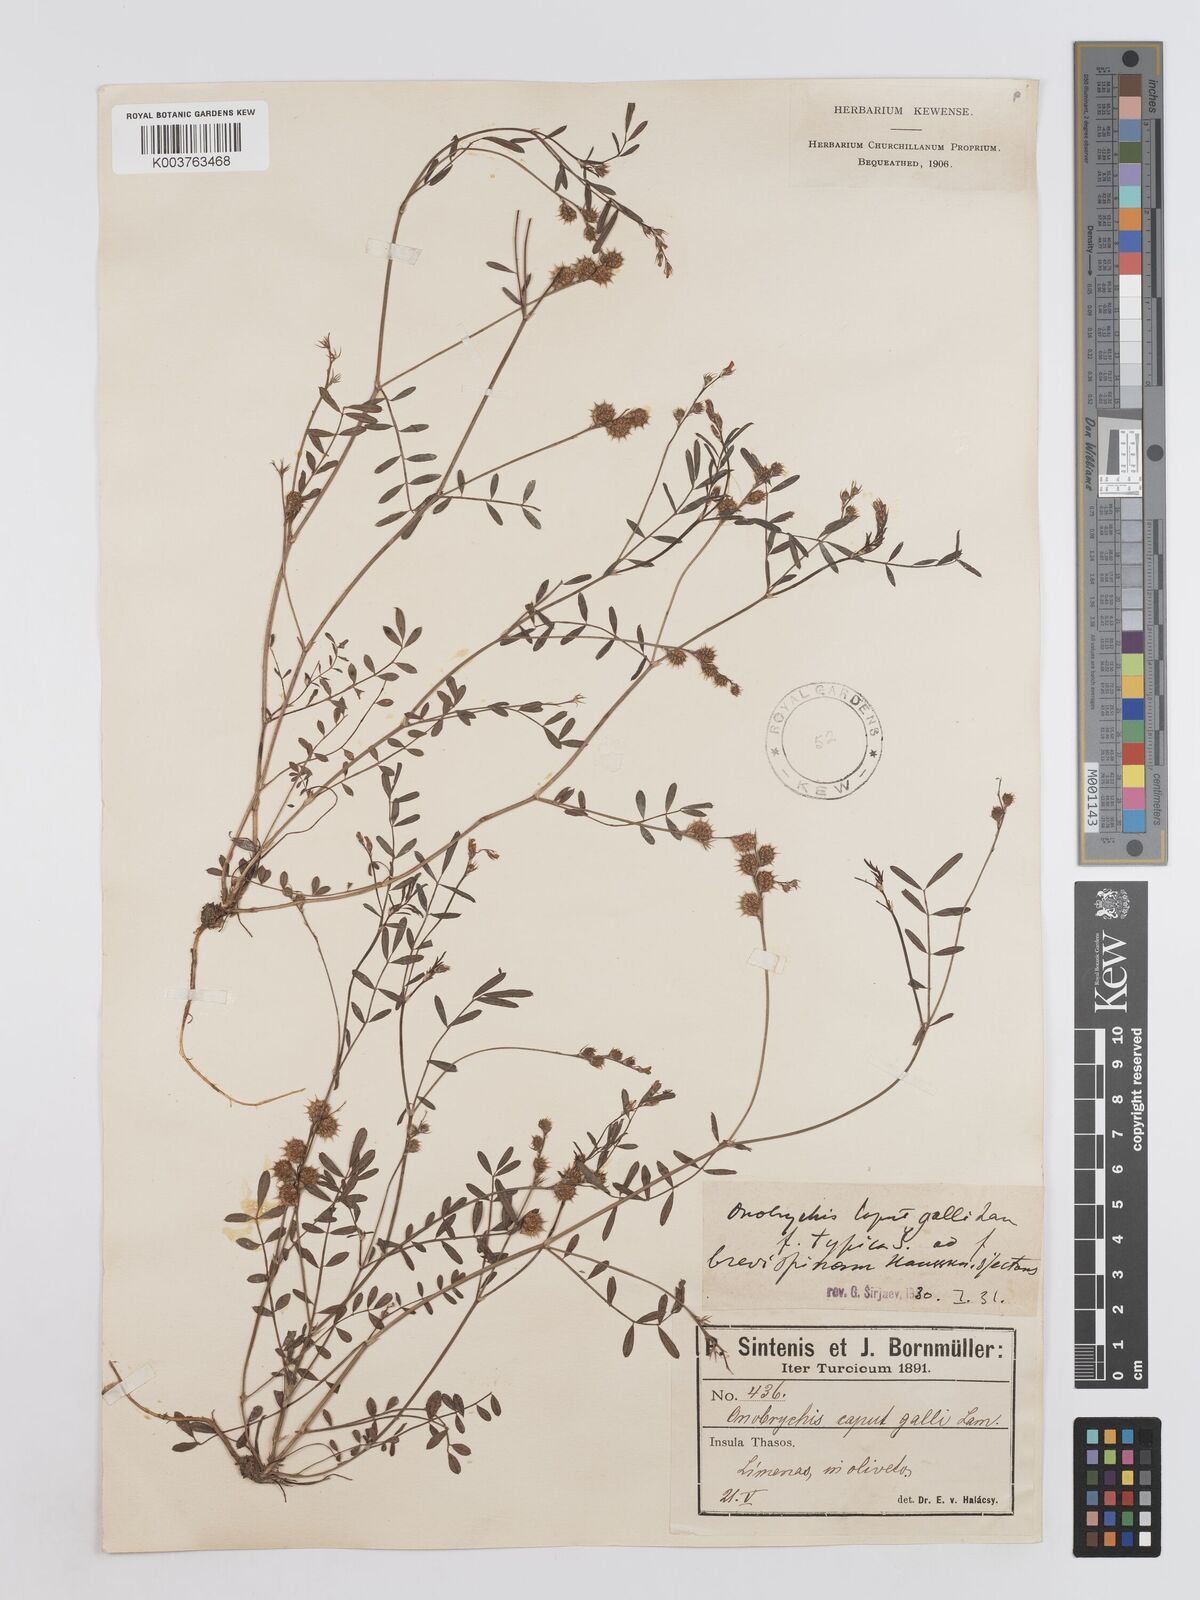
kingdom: Plantae
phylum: Tracheophyta
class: Magnoliopsida
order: Fabales
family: Fabaceae
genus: Onobrychis
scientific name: Onobrychis caput-galli
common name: Cockscomb sainfoin
